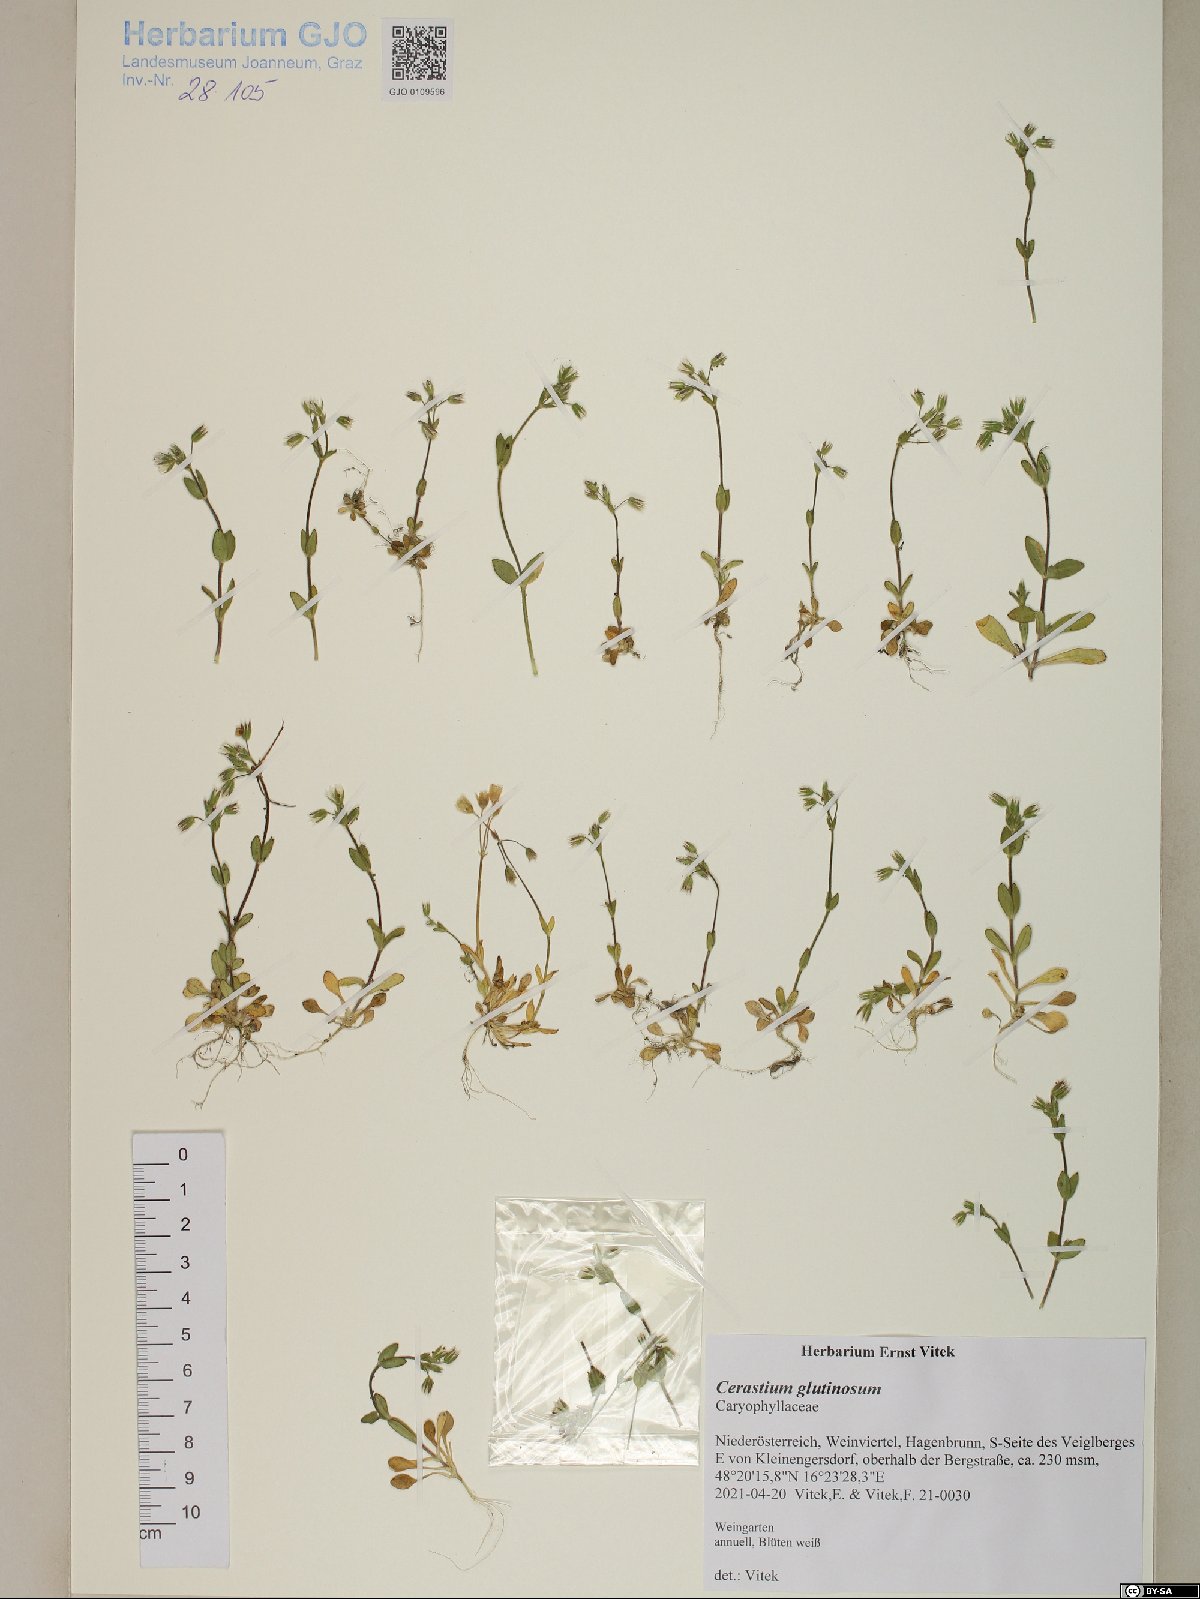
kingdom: Plantae
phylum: Tracheophyta
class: Magnoliopsida
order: Caryophyllales
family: Caryophyllaceae
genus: Cerastium
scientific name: Cerastium glutinosum
